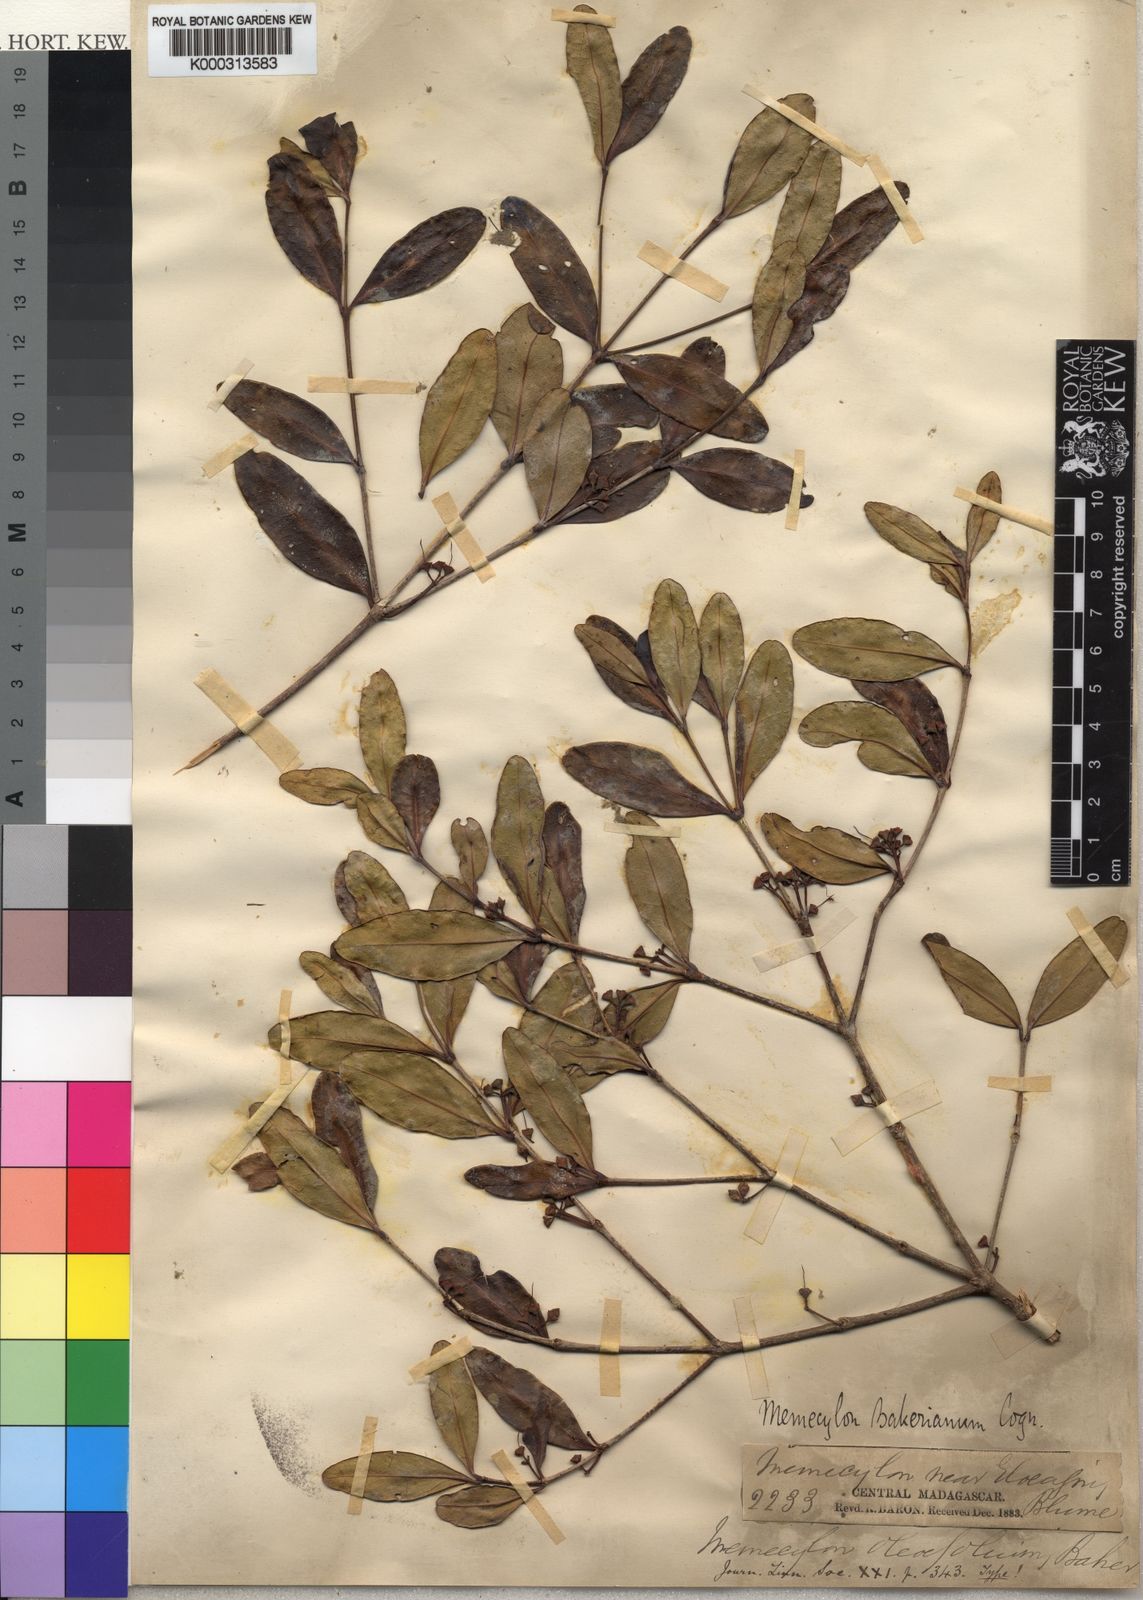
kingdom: Plantae
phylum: Tracheophyta
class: Magnoliopsida
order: Myrtales
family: Melastomataceae
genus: Memecylon
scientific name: Memecylon
